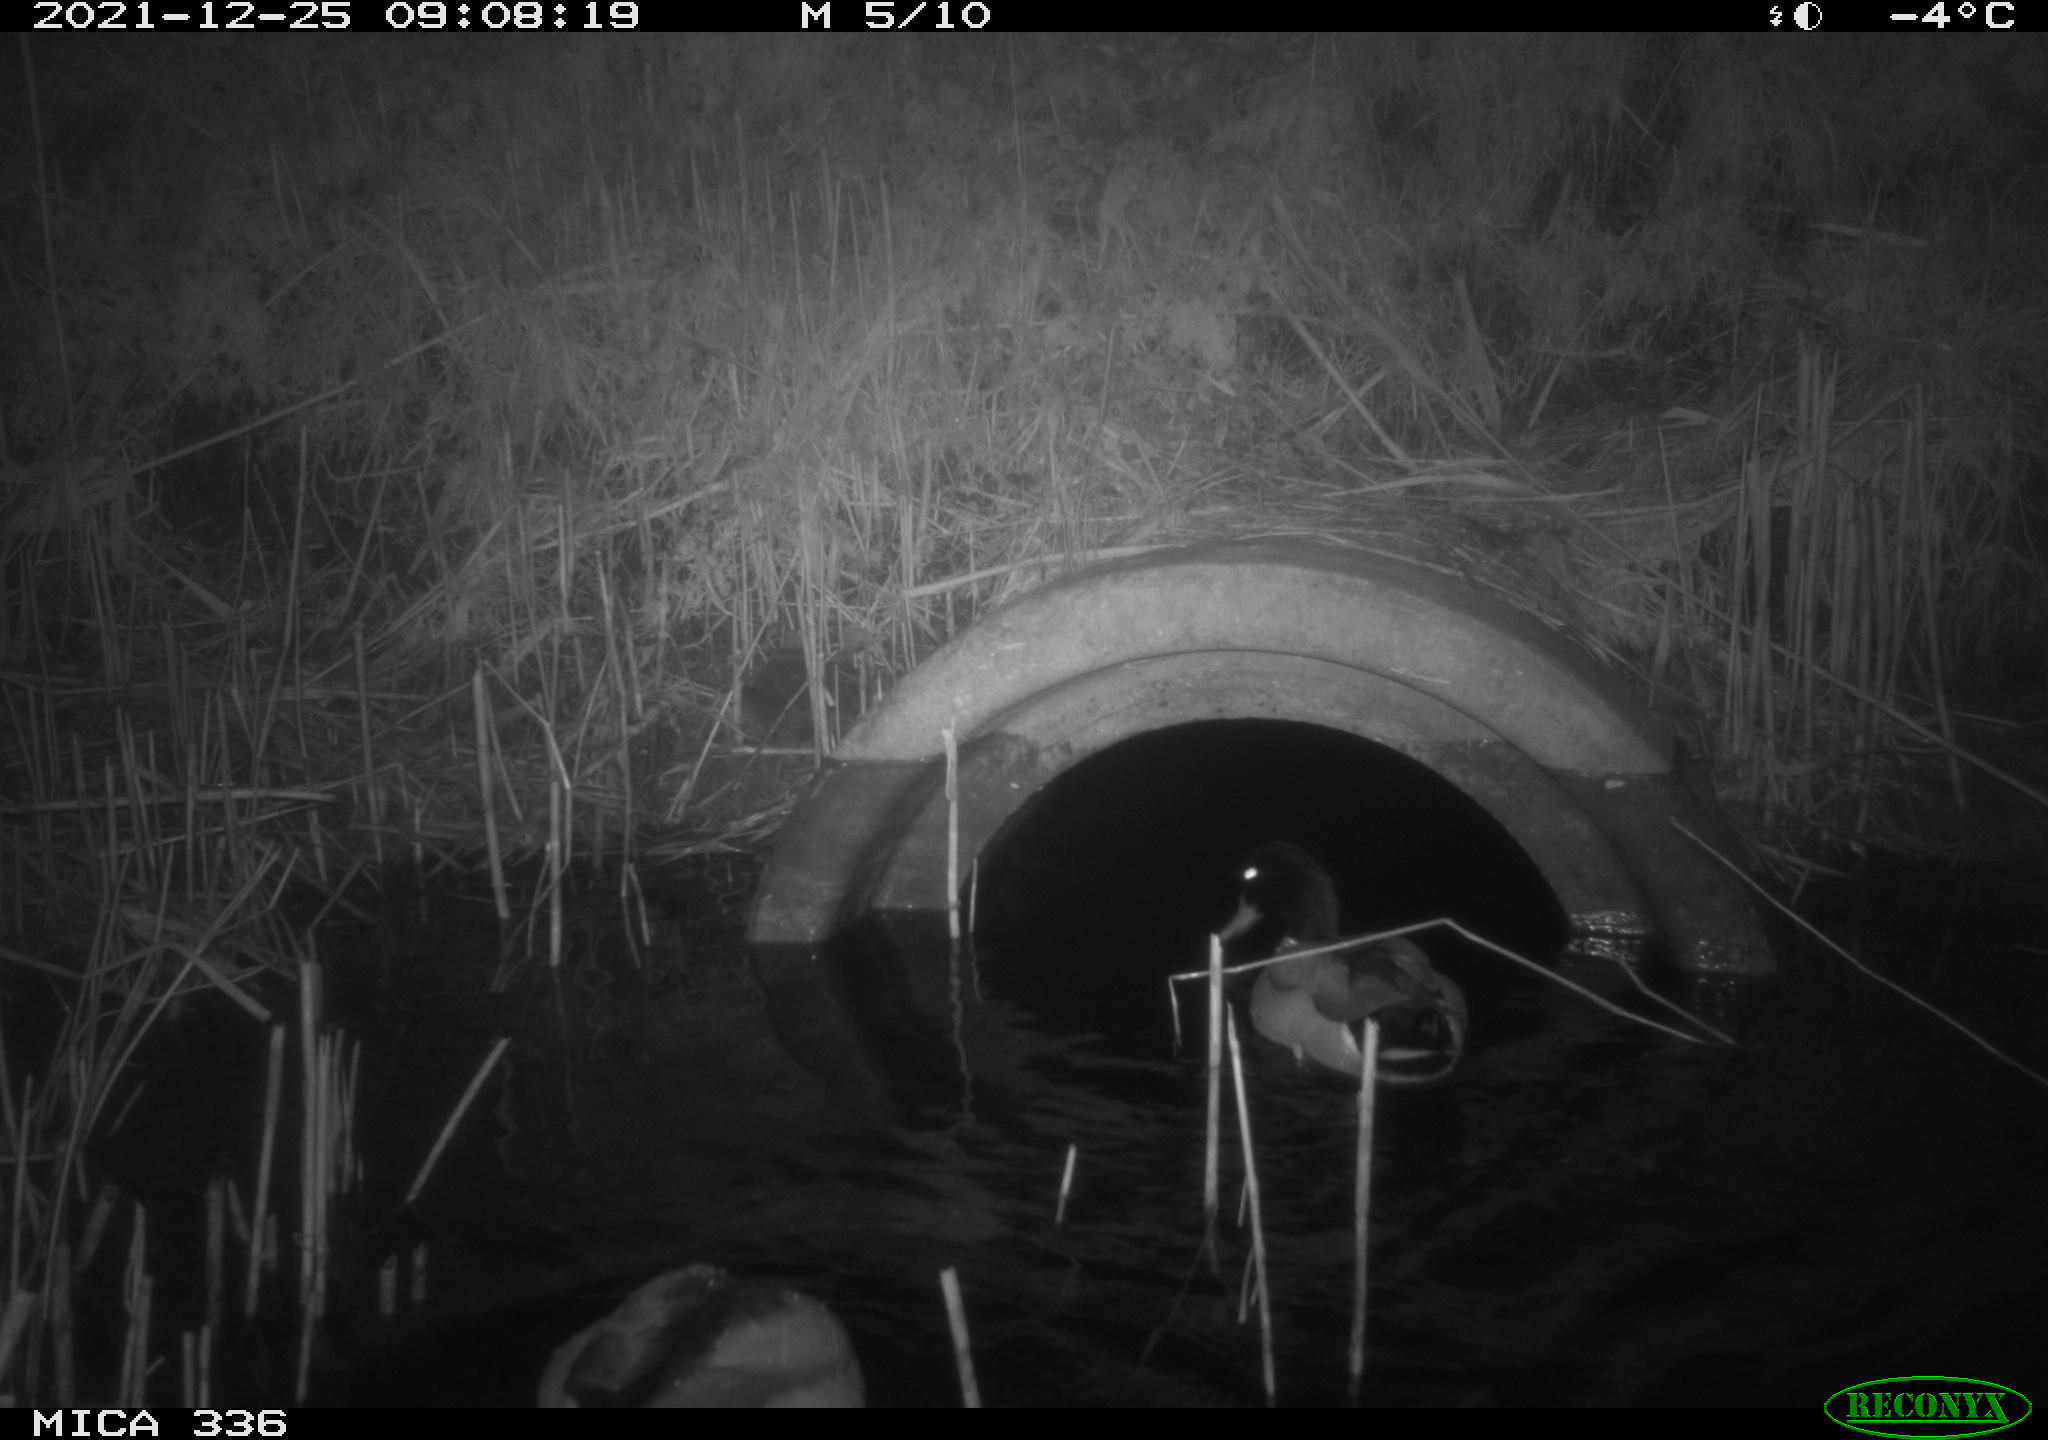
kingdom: Animalia
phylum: Chordata
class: Aves
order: Anseriformes
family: Anatidae
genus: Anas
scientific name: Anas platyrhynchos
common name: Mallard
